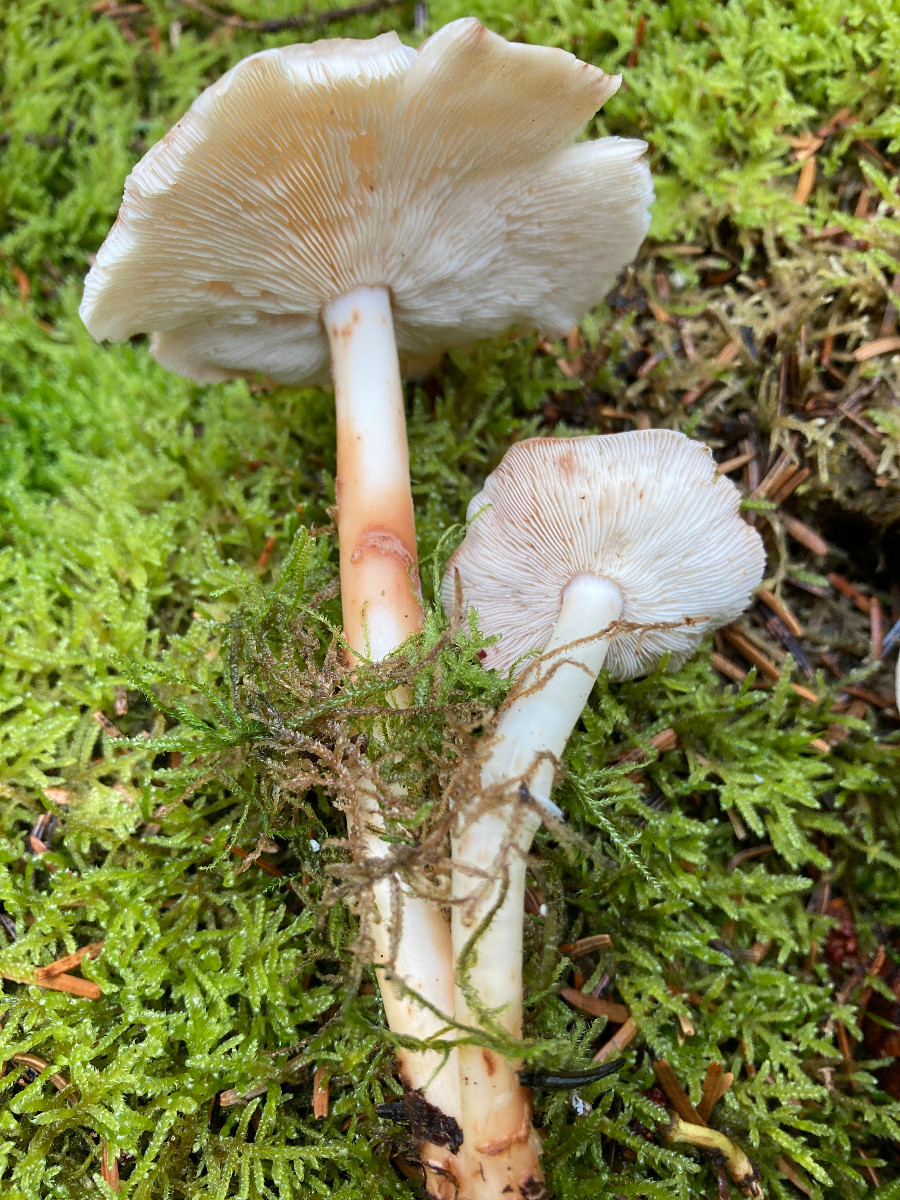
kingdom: Fungi
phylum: Basidiomycota
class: Agaricomycetes
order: Agaricales
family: Omphalotaceae
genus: Rhodocollybia
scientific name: Rhodocollybia maculata
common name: plettet fladhat
